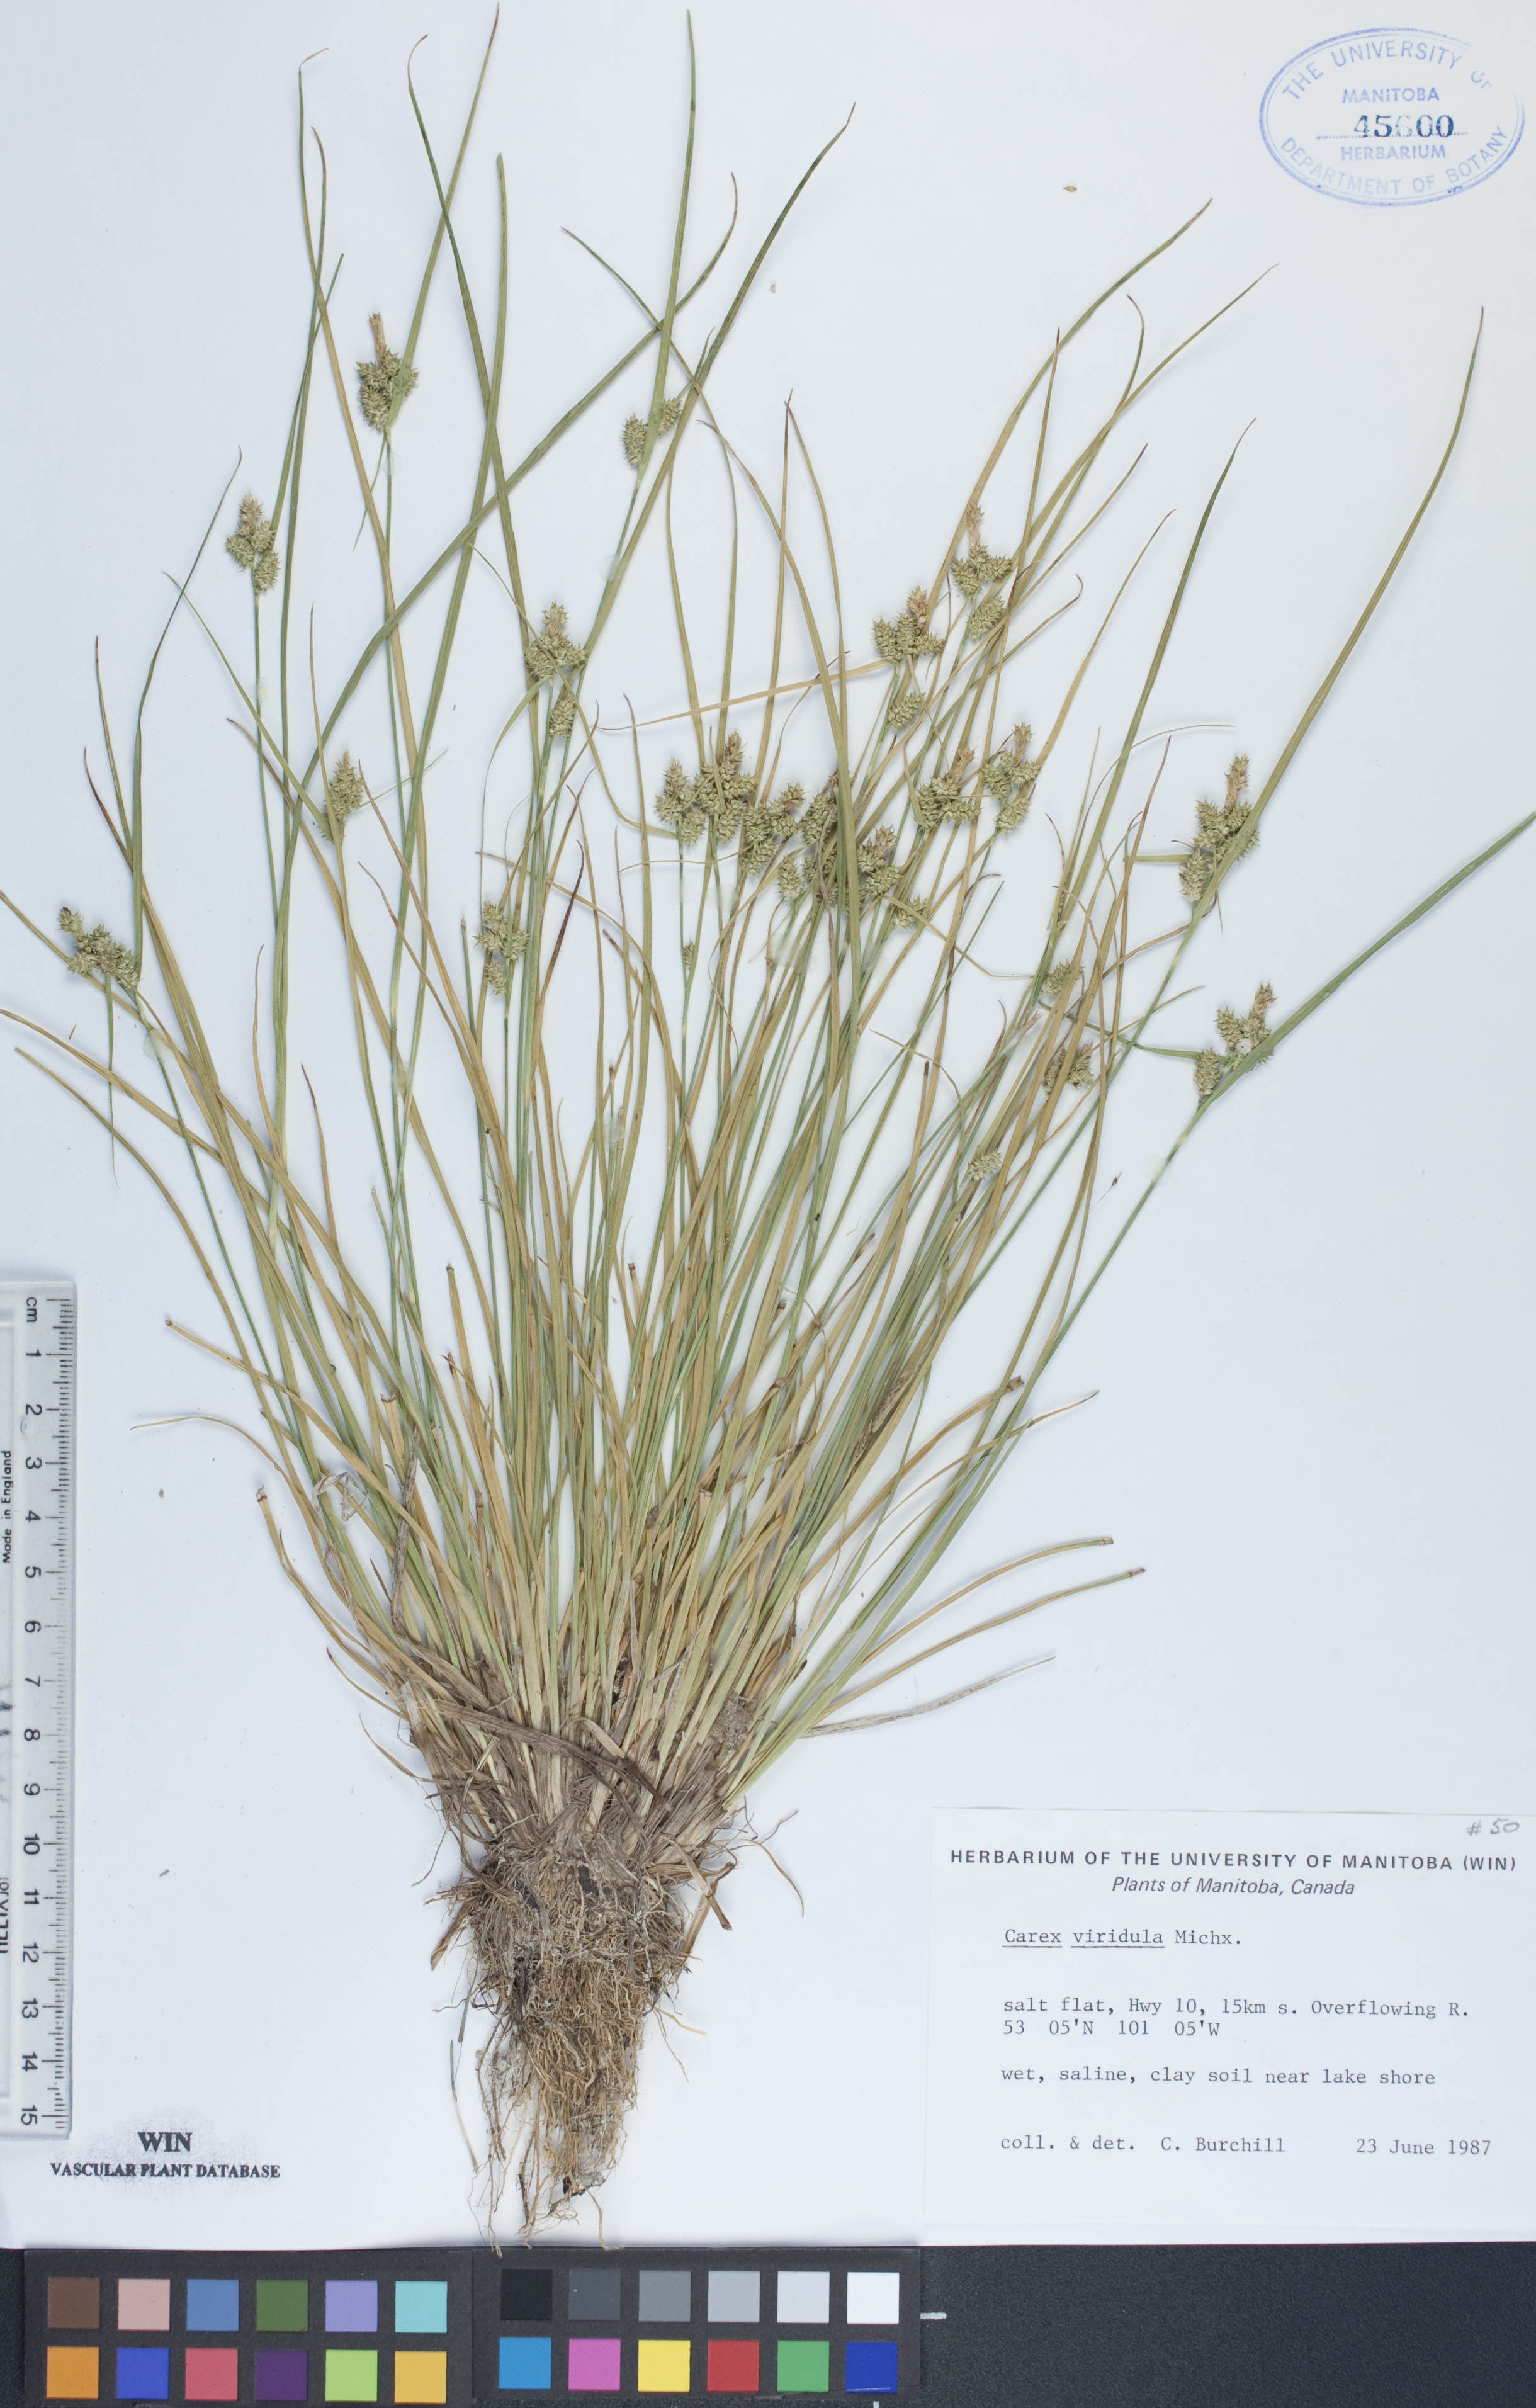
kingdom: Plantae
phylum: Tracheophyta
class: Liliopsida
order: Poales
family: Cyperaceae
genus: Carex
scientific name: Carex oederi
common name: Common & small-fruited yellow-sedge
